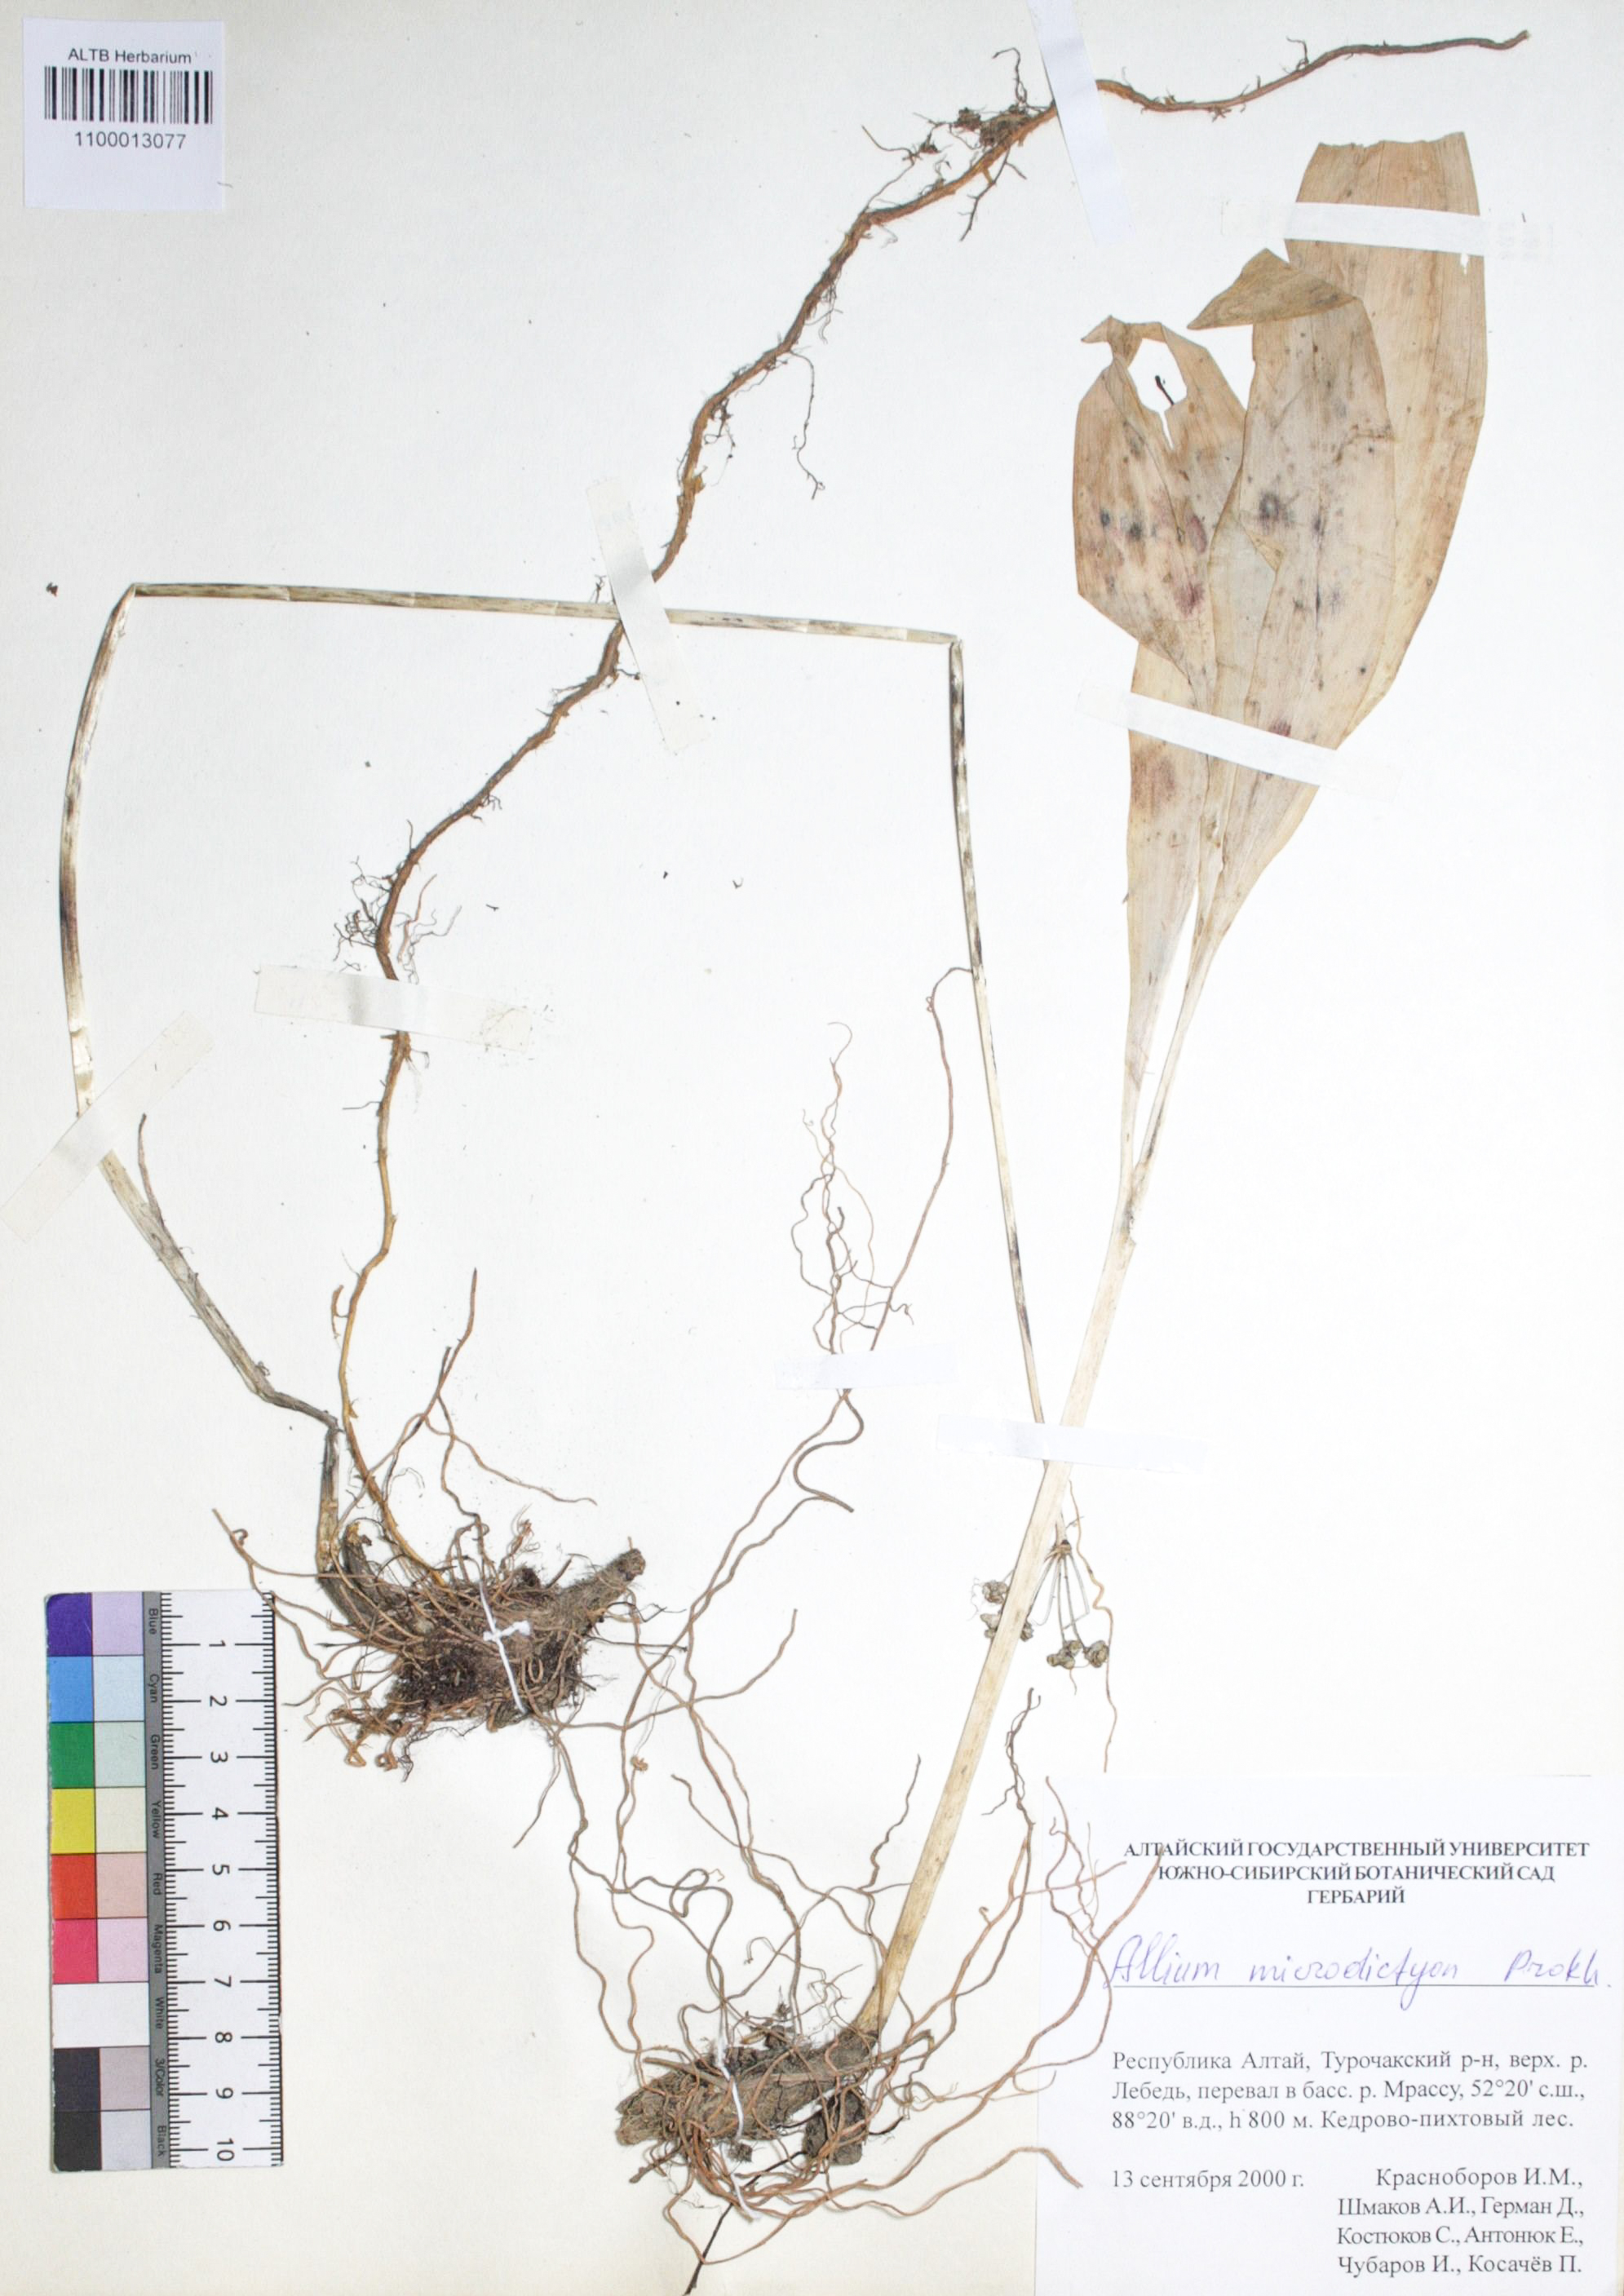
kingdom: Plantae
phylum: Tracheophyta
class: Liliopsida
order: Asparagales
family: Amaryllidaceae
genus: Allium
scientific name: Allium microdictyon
